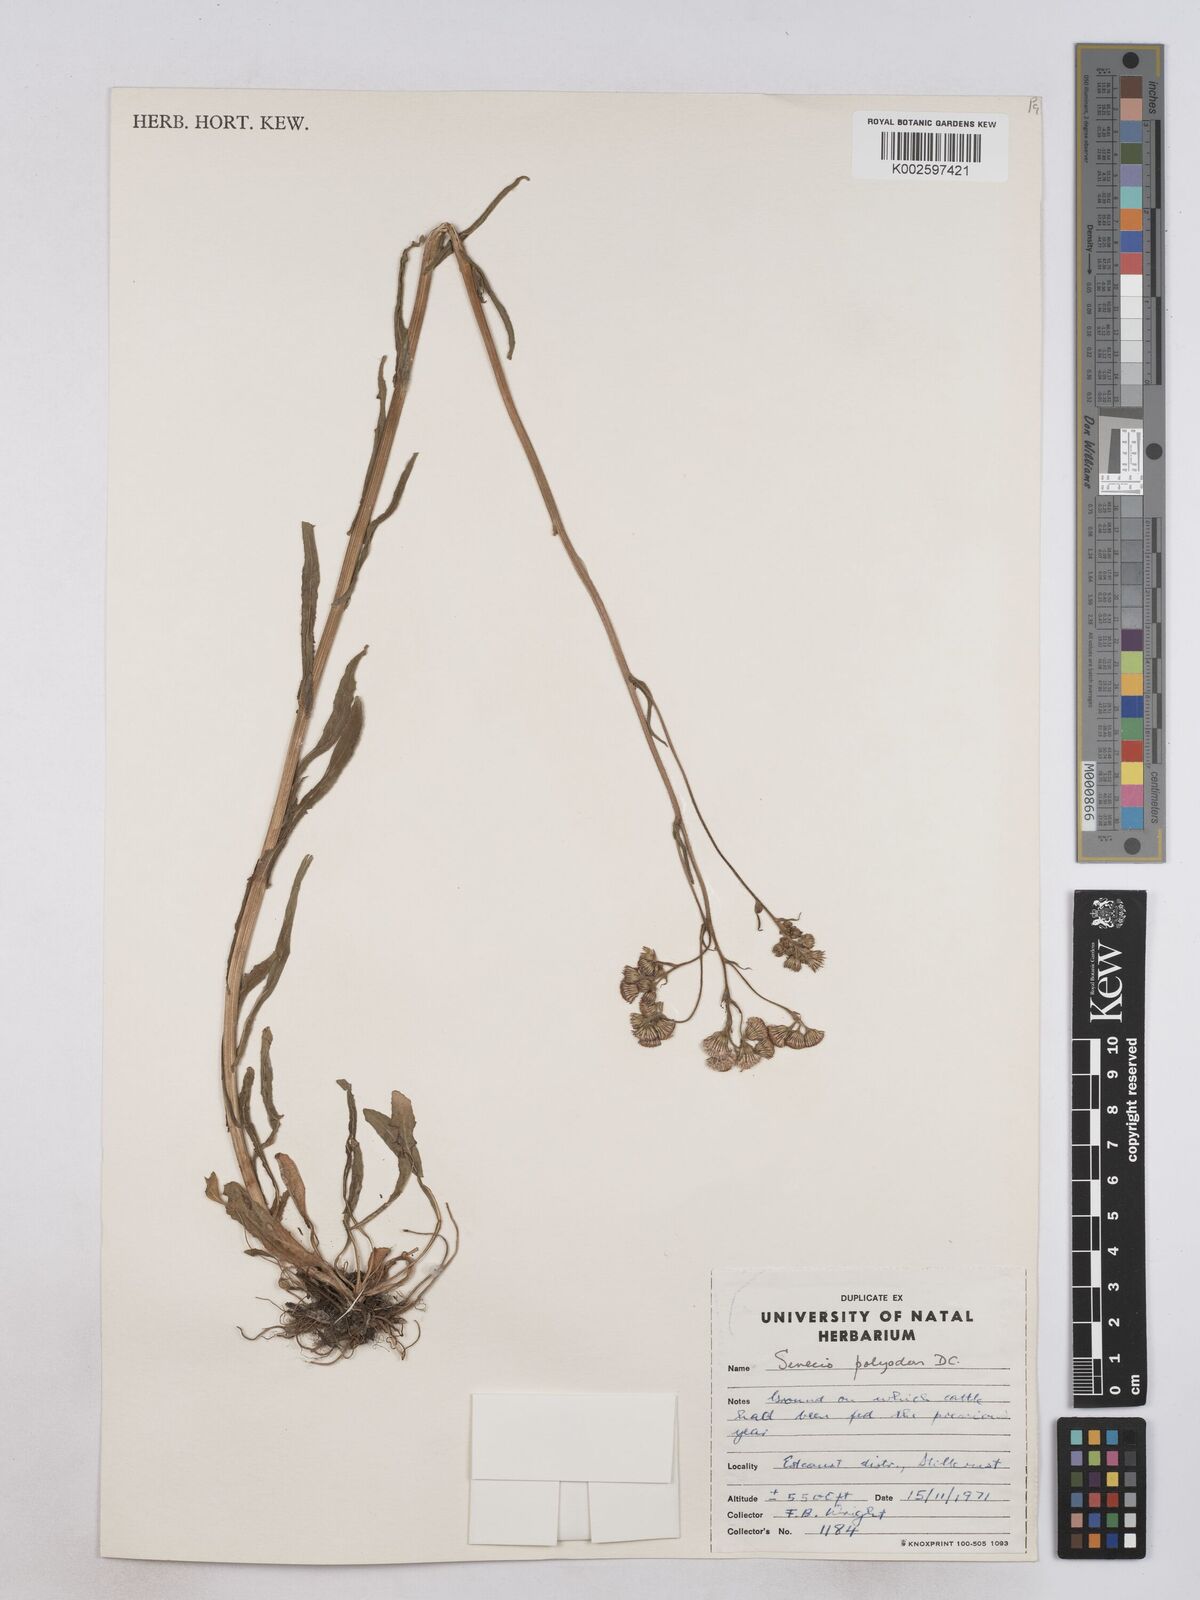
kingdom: Plantae
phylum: Tracheophyta
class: Magnoliopsida
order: Asterales
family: Asteraceae
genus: Senecio
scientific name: Senecio polyodon
